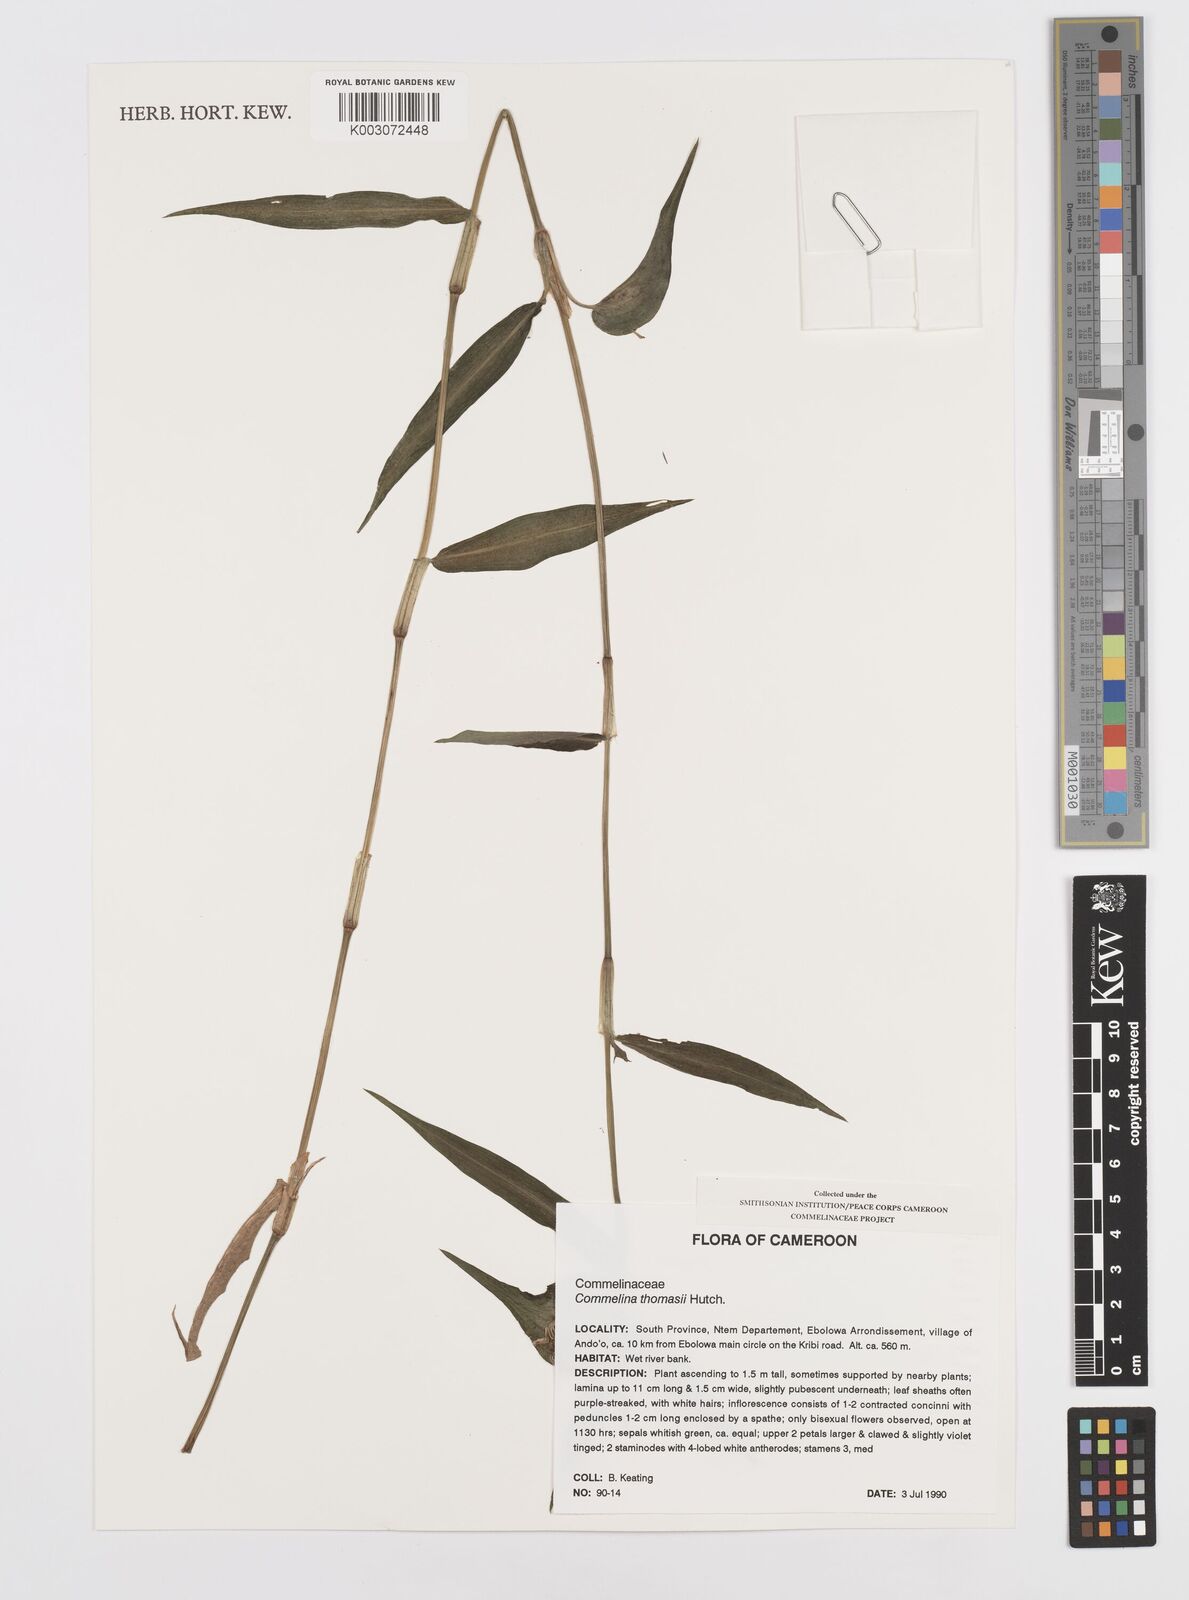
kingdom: Plantae
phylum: Tracheophyta
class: Liliopsida
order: Commelinales
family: Commelinaceae
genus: Commelina
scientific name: Commelina acutispatha
